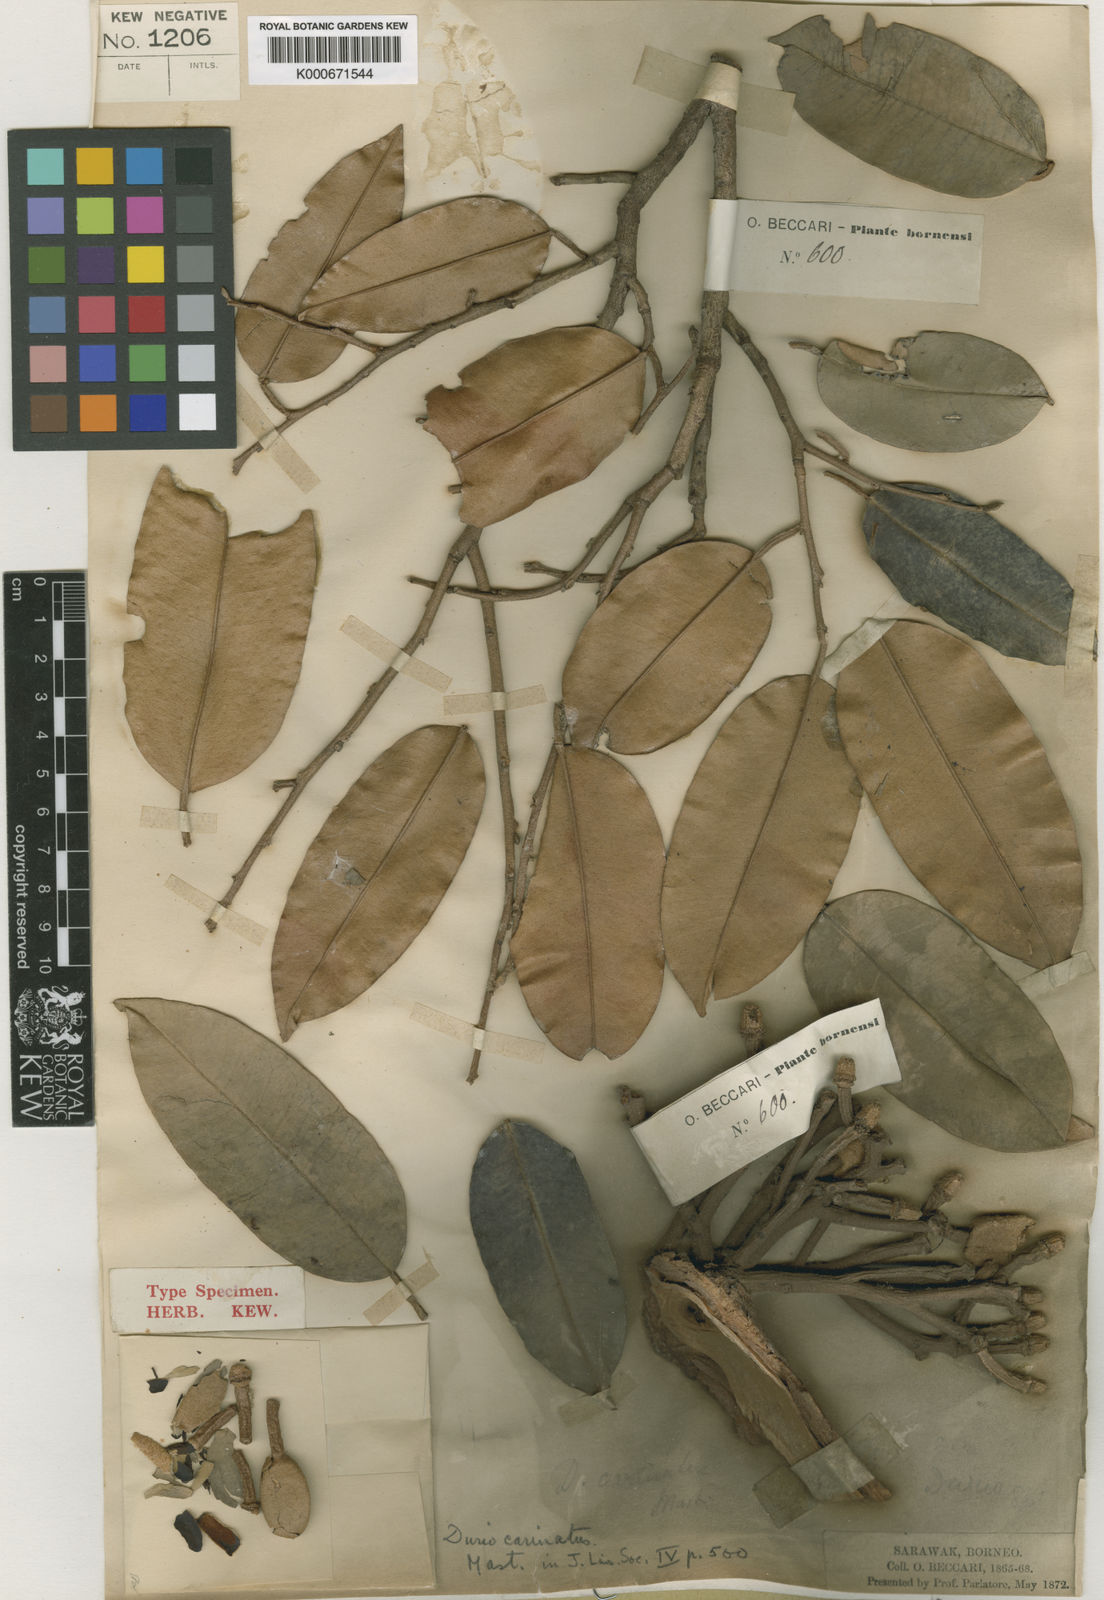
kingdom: Plantae
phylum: Tracheophyta
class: Magnoliopsida
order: Malvales
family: Malvaceae
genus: Durio
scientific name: Durio carinatus
